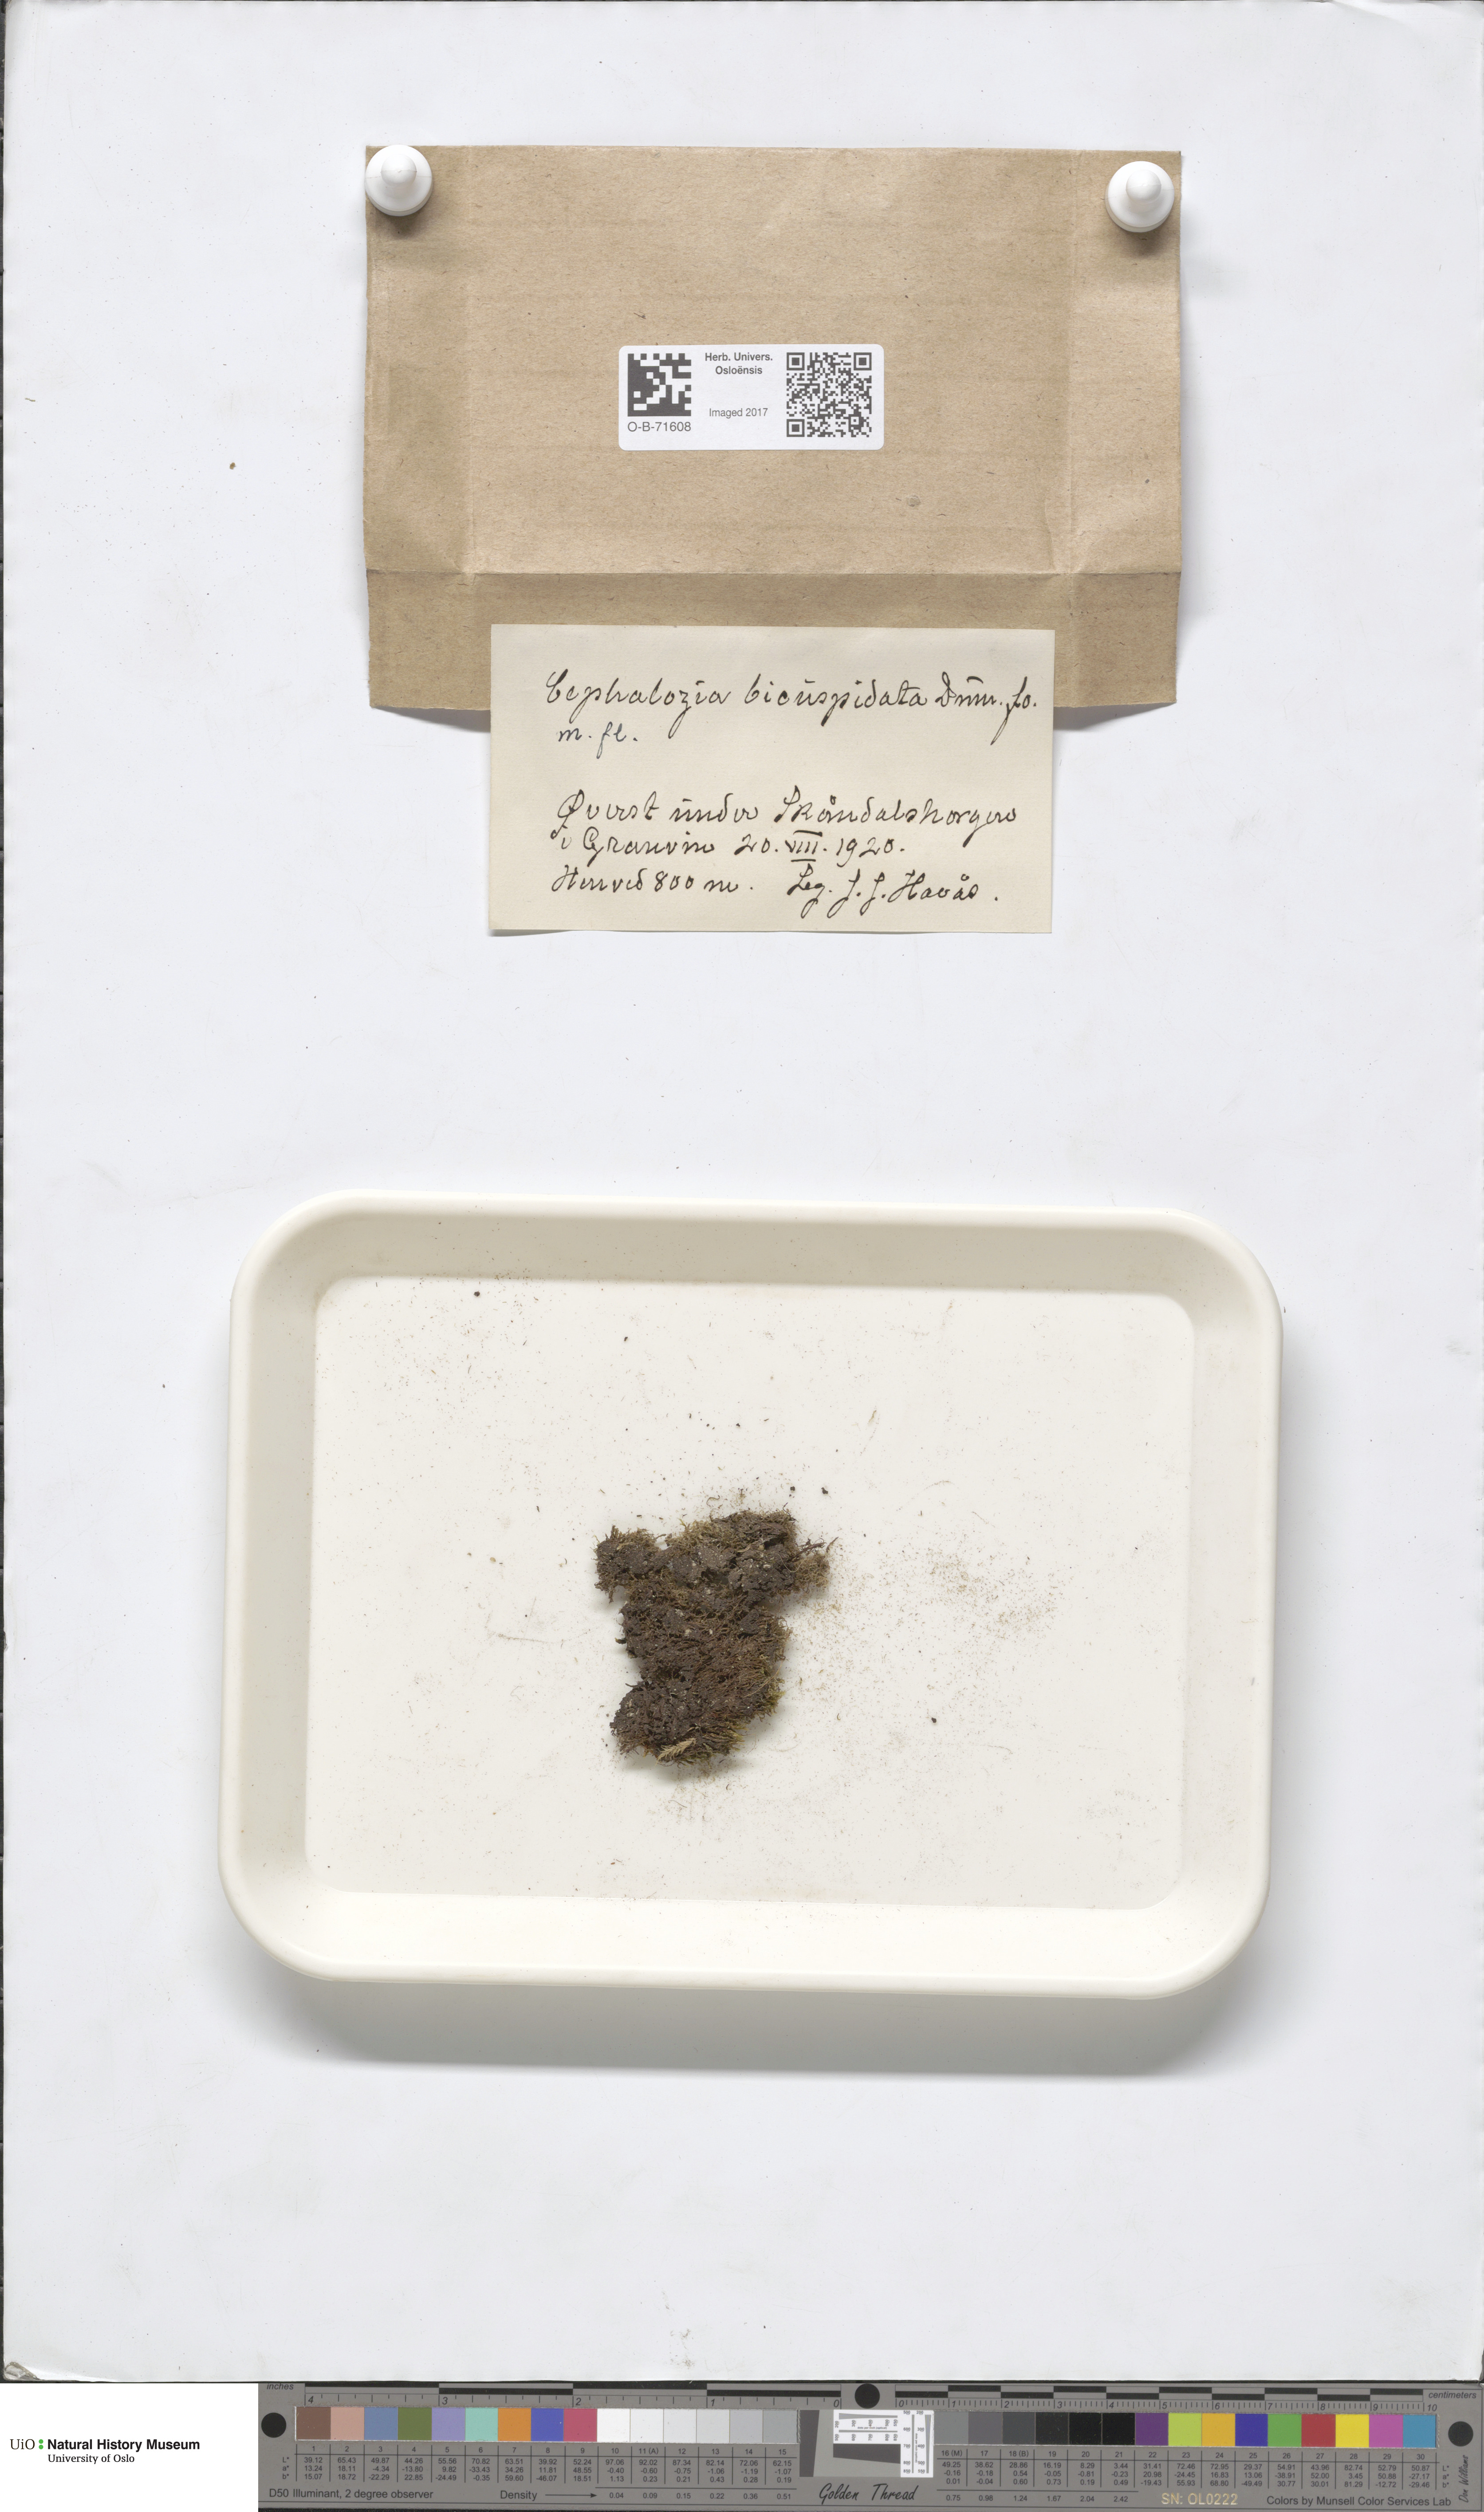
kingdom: Plantae
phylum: Marchantiophyta
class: Jungermanniopsida
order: Jungermanniales
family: Cephaloziaceae
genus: Cephalozia
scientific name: Cephalozia bicuspidata
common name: Two-horned pincerwort
